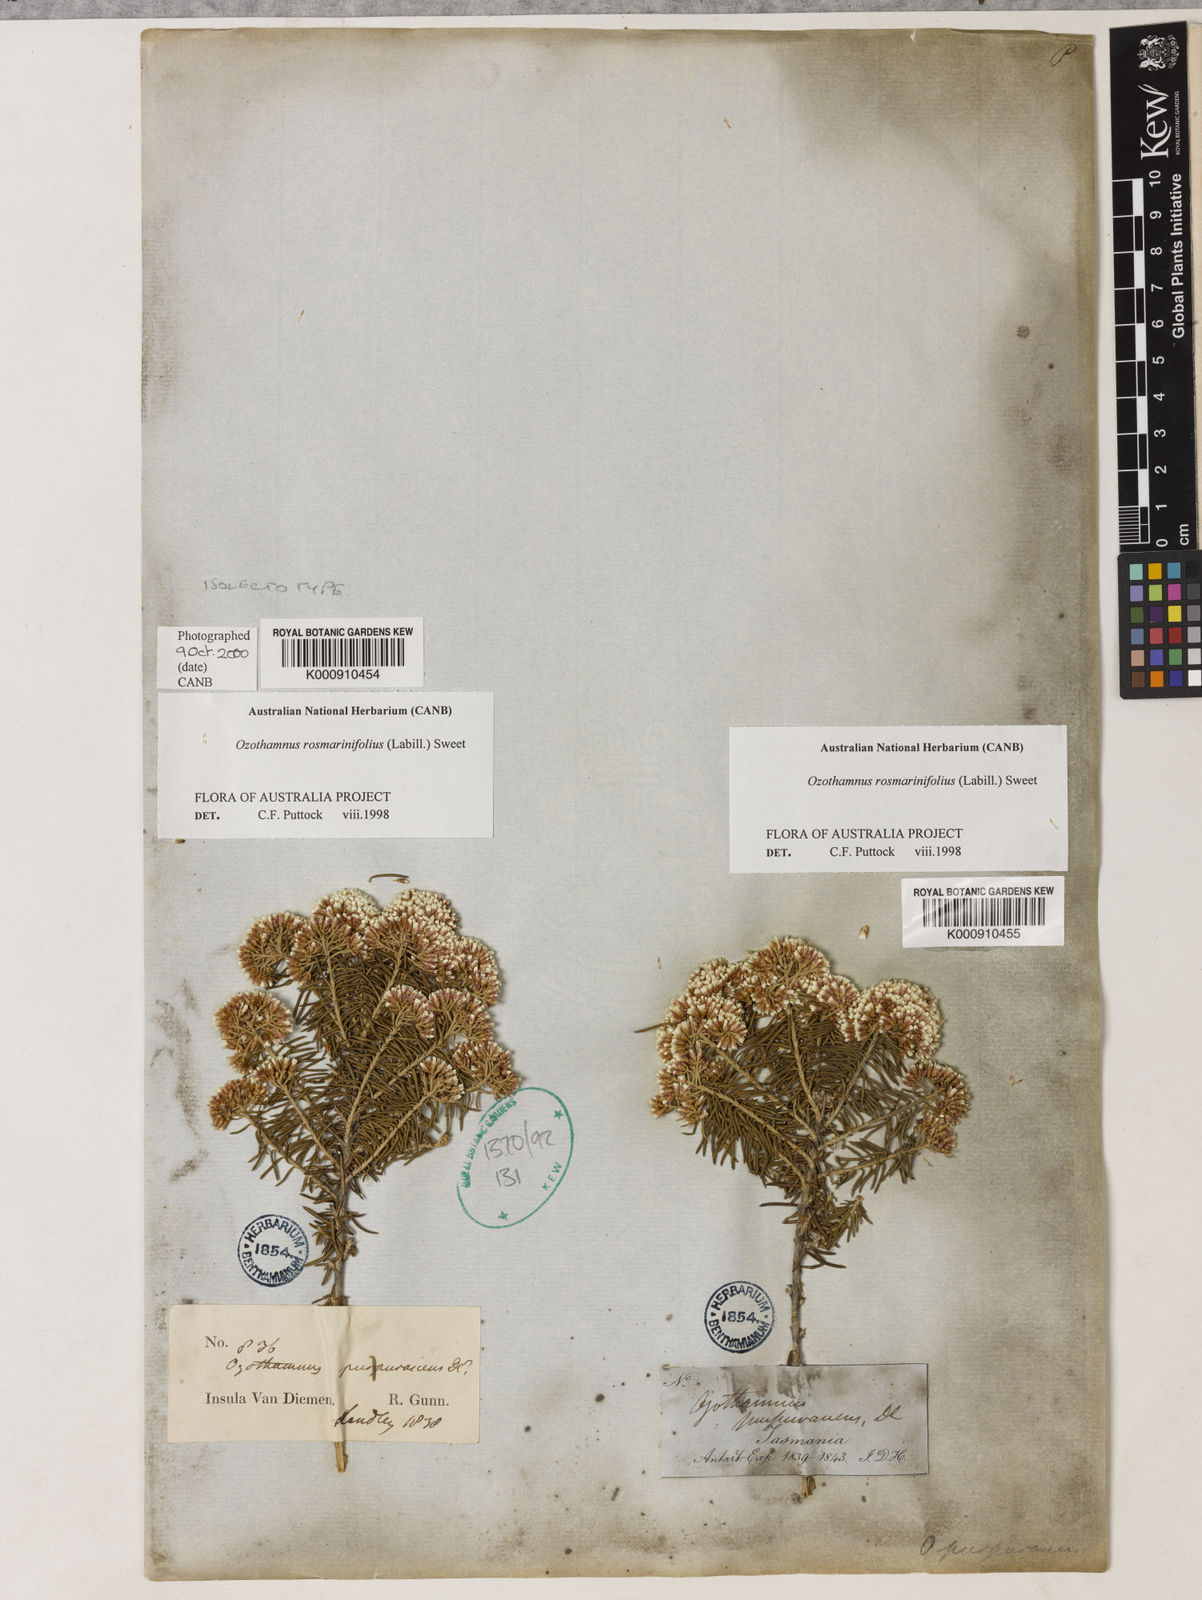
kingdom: Plantae
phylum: Tracheophyta
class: Magnoliopsida
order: Asterales
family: Asteraceae
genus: Ozothamnus
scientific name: Ozothamnus rosmarinifolius
